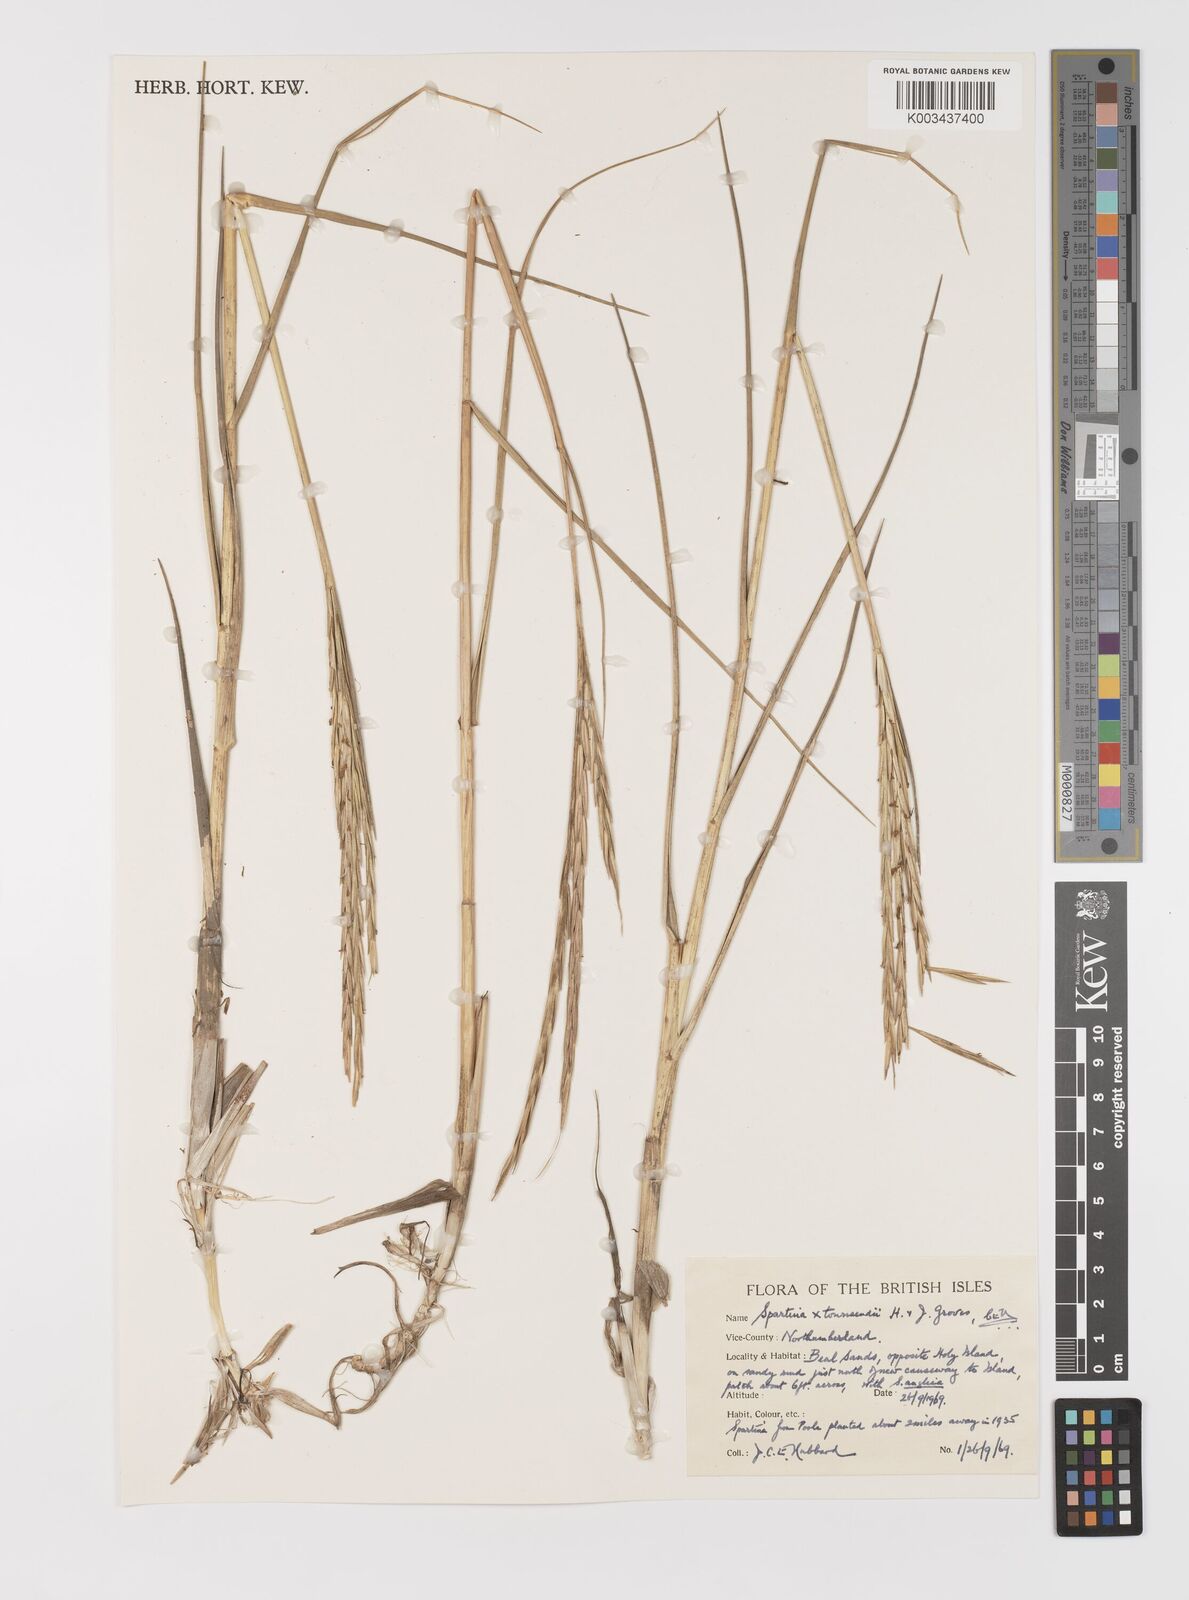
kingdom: Plantae
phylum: Tracheophyta
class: Liliopsida
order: Poales
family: Poaceae
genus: Sporobolus
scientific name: Sporobolus townsendii
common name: Townsend's cordgrass
